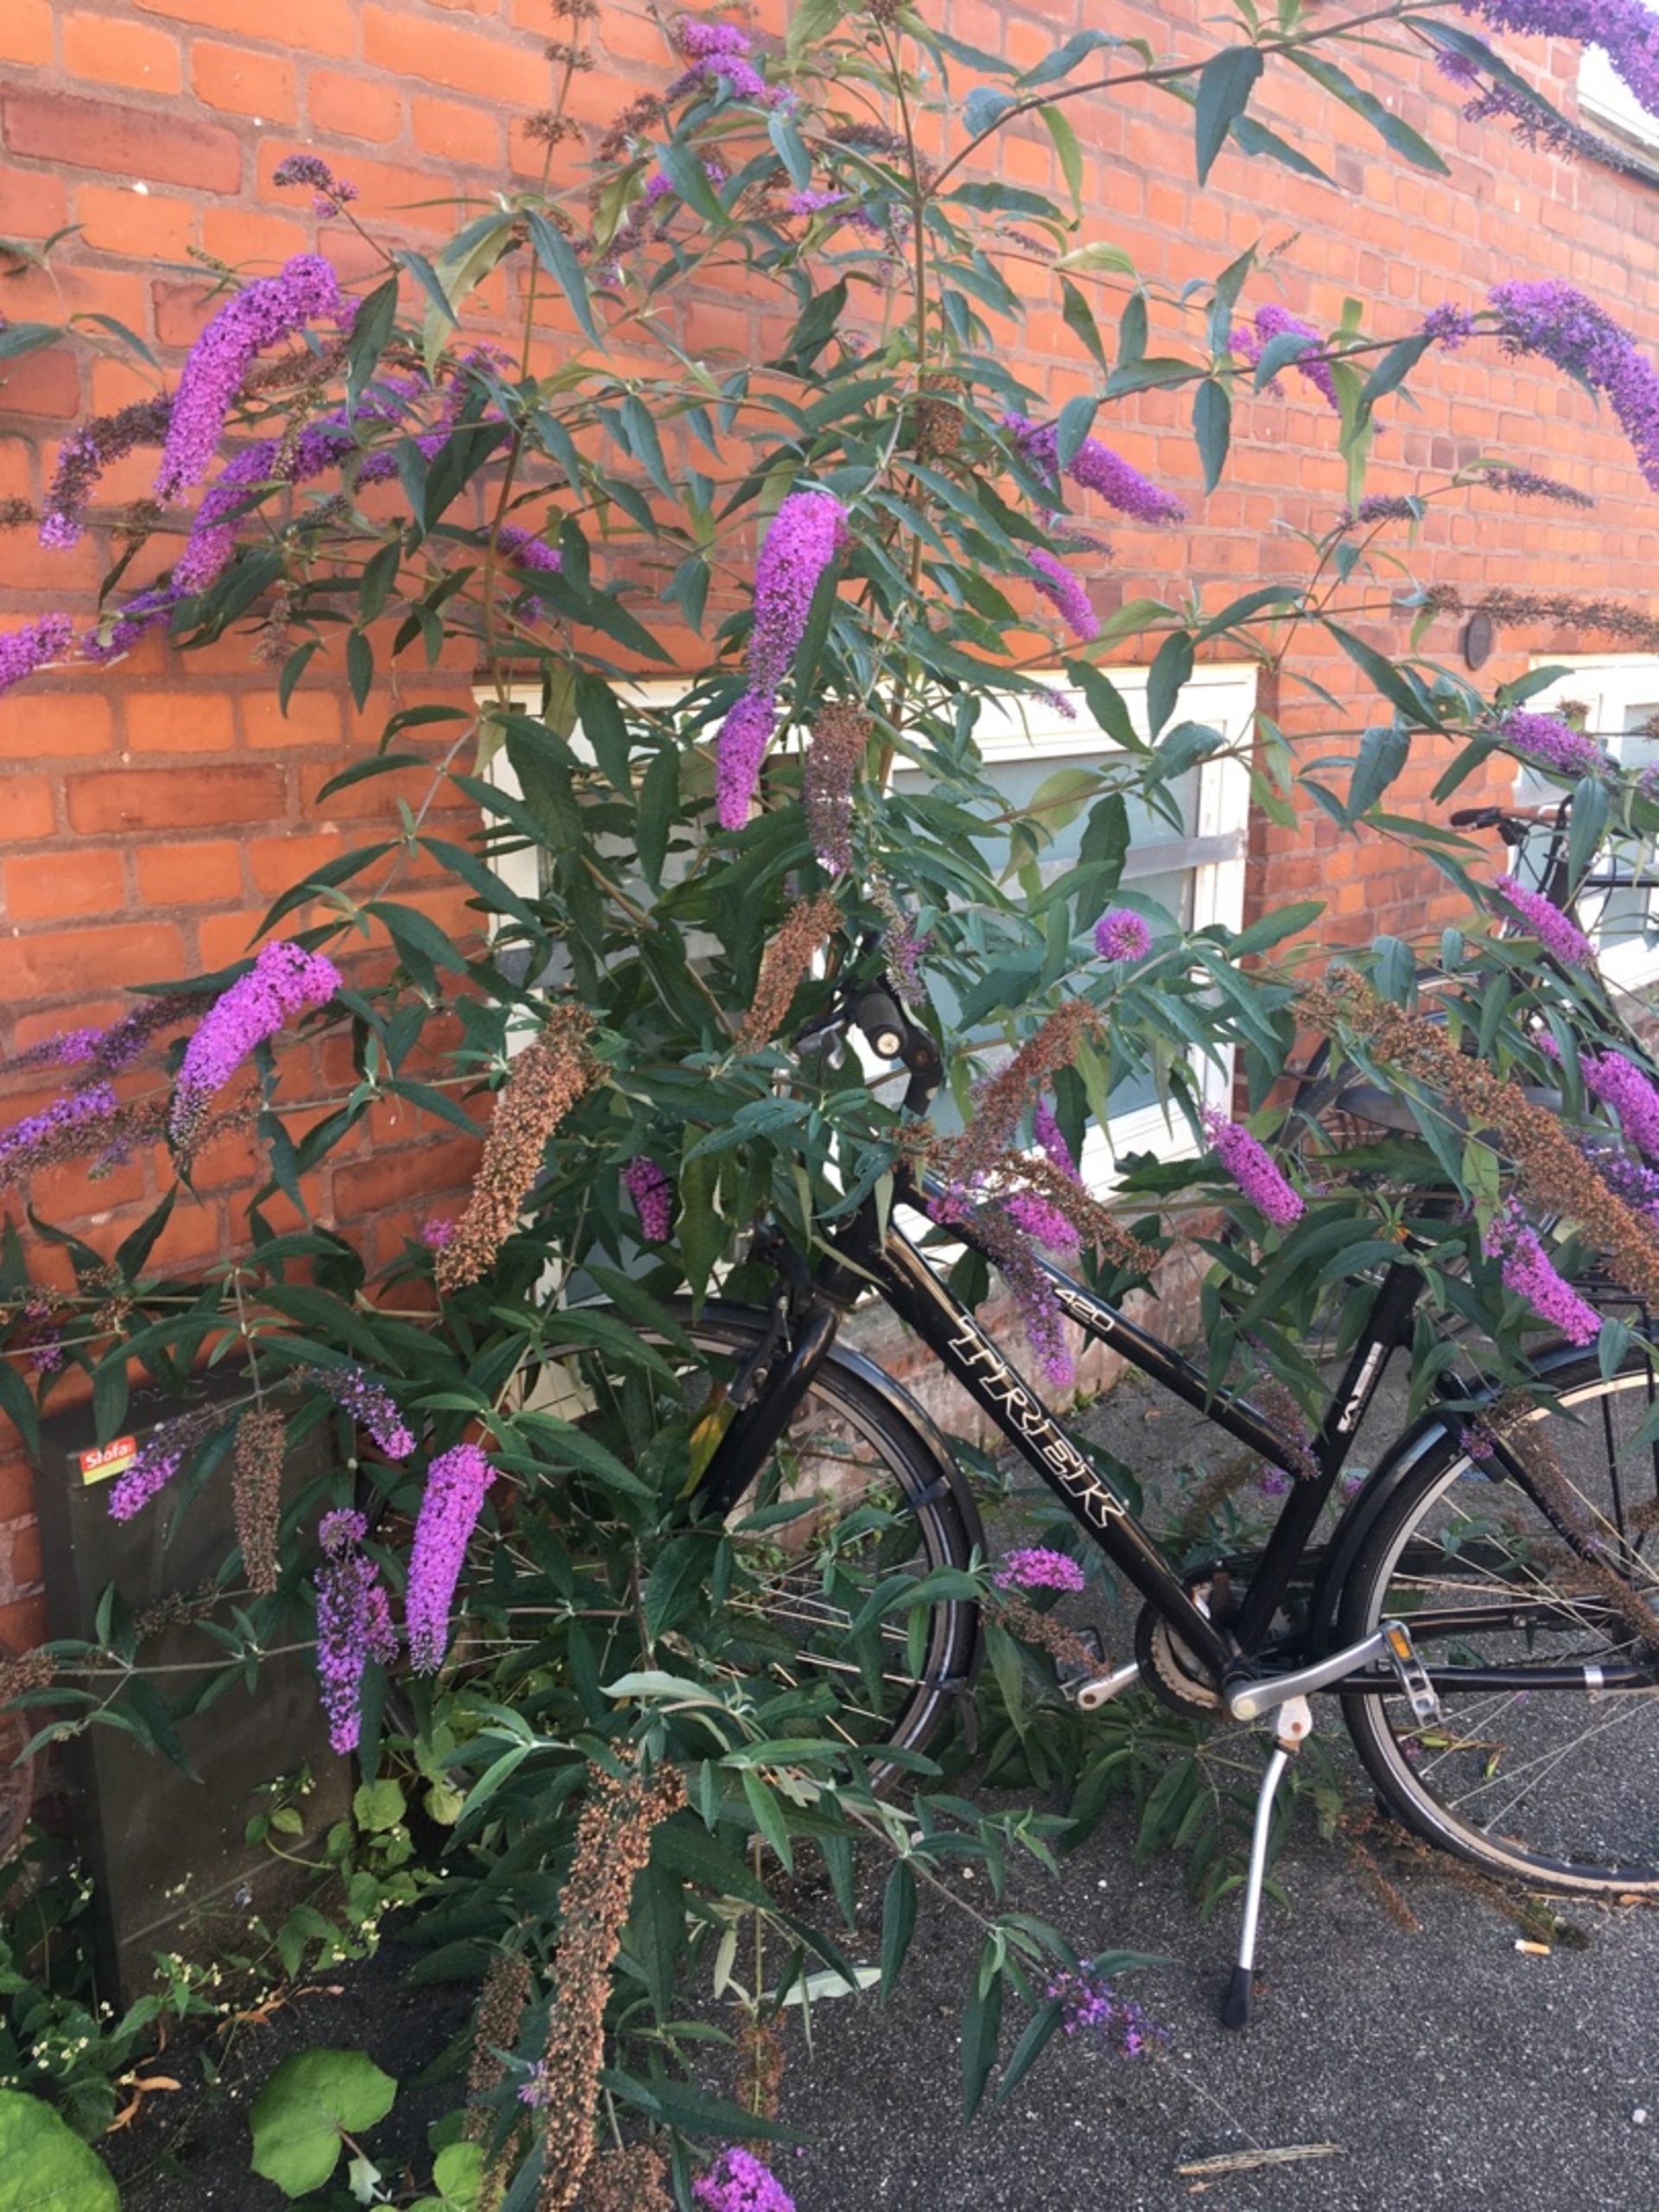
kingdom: Plantae
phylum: Tracheophyta
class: Magnoliopsida
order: Lamiales
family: Scrophulariaceae
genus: Buddleja
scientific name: Buddleja davidii
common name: Sommerfuglebusk
